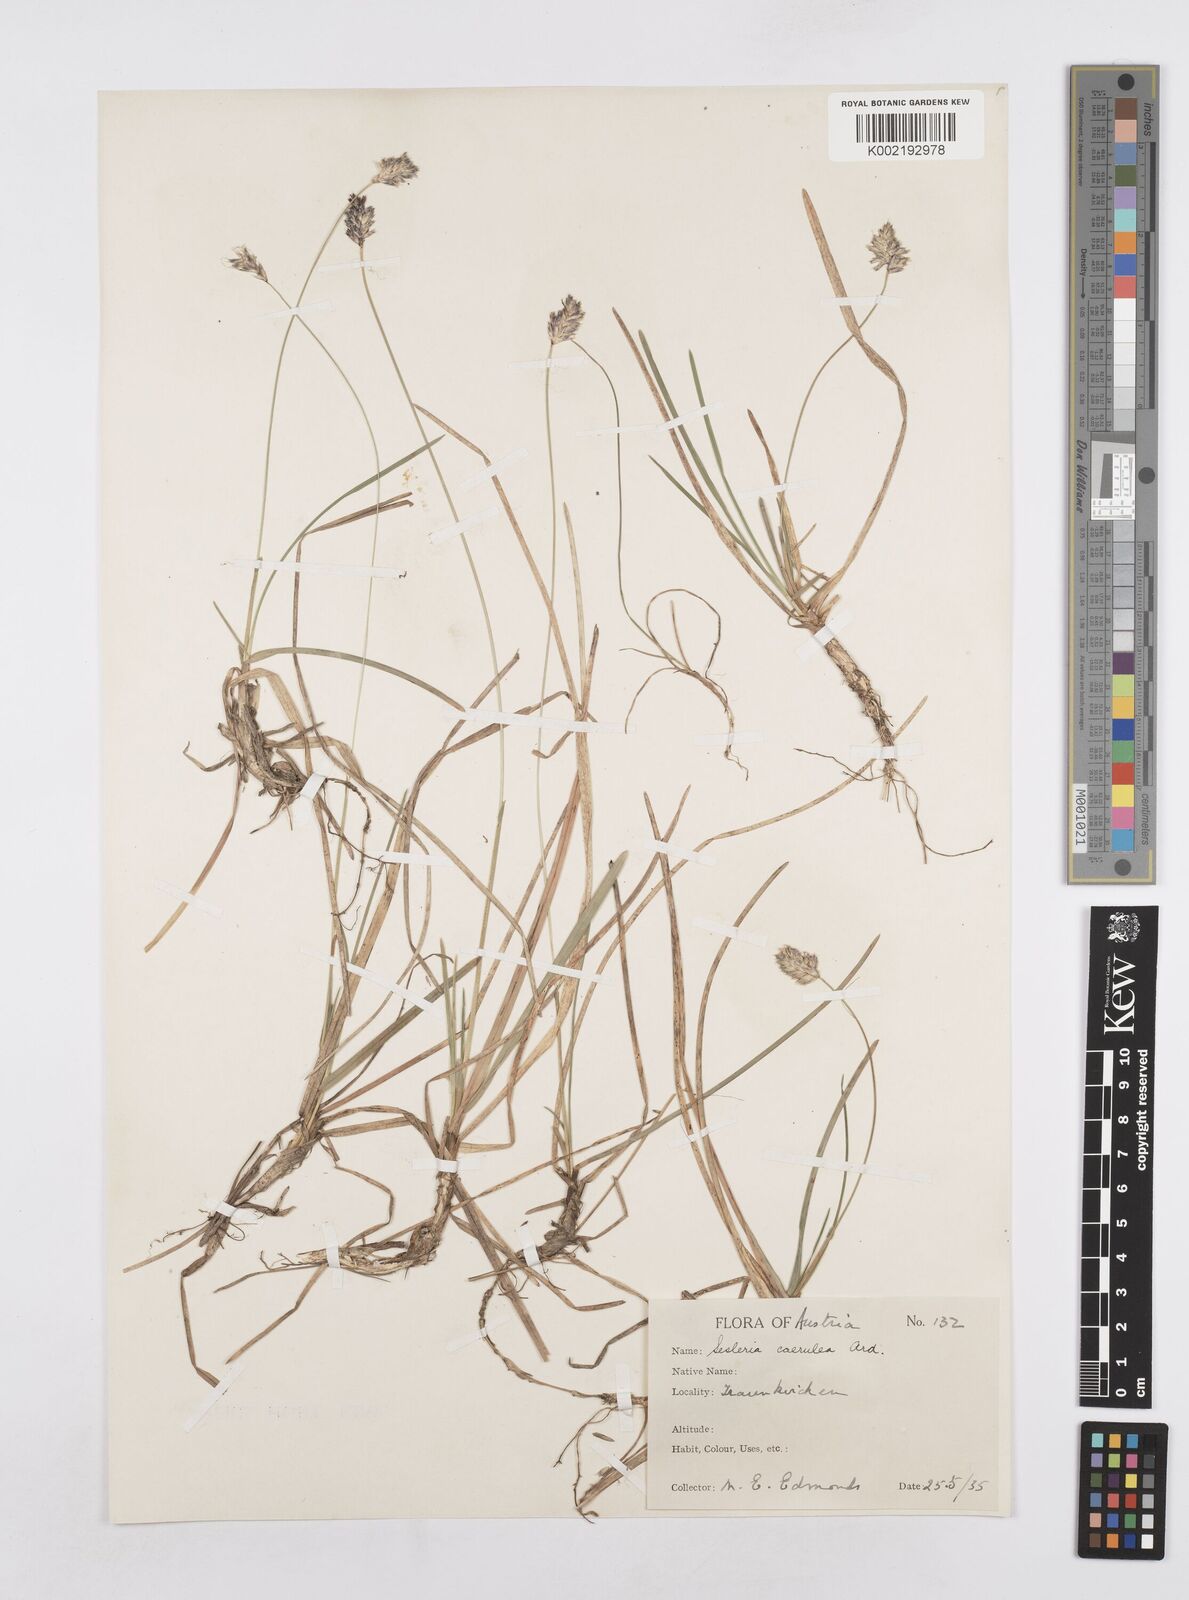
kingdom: Plantae
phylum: Tracheophyta
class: Liliopsida
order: Poales
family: Poaceae
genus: Sesleria
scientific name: Sesleria caerulea
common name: Blue moor-grass
